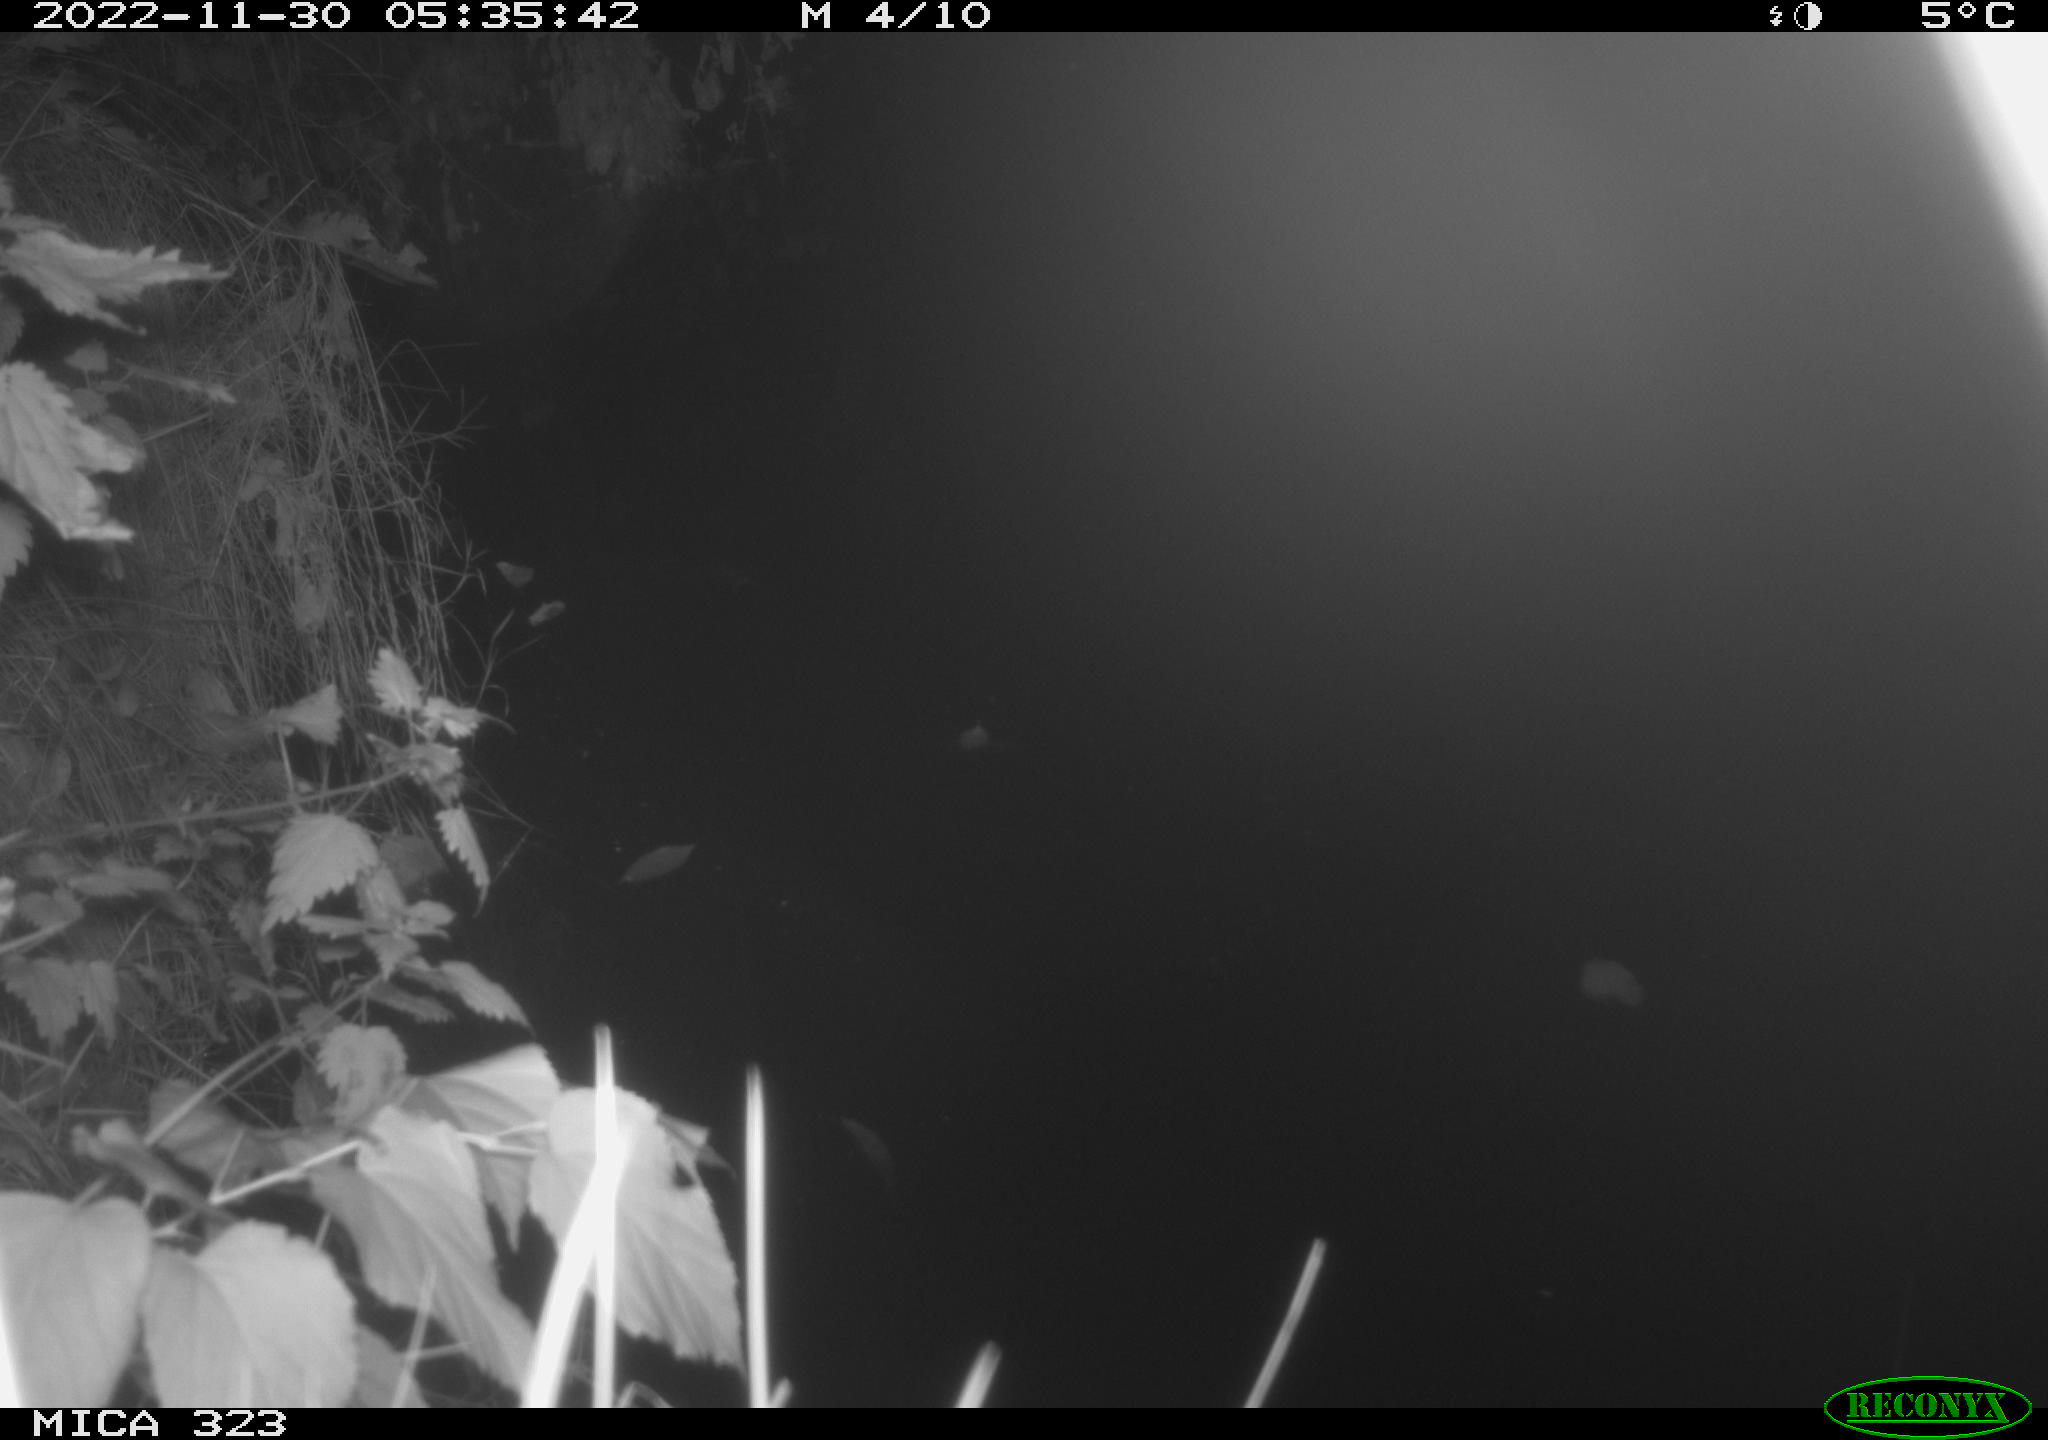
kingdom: Animalia
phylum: Chordata
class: Mammalia
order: Rodentia
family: Cricetidae
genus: Ondatra
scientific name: Ondatra zibethicus
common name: Muskrat
